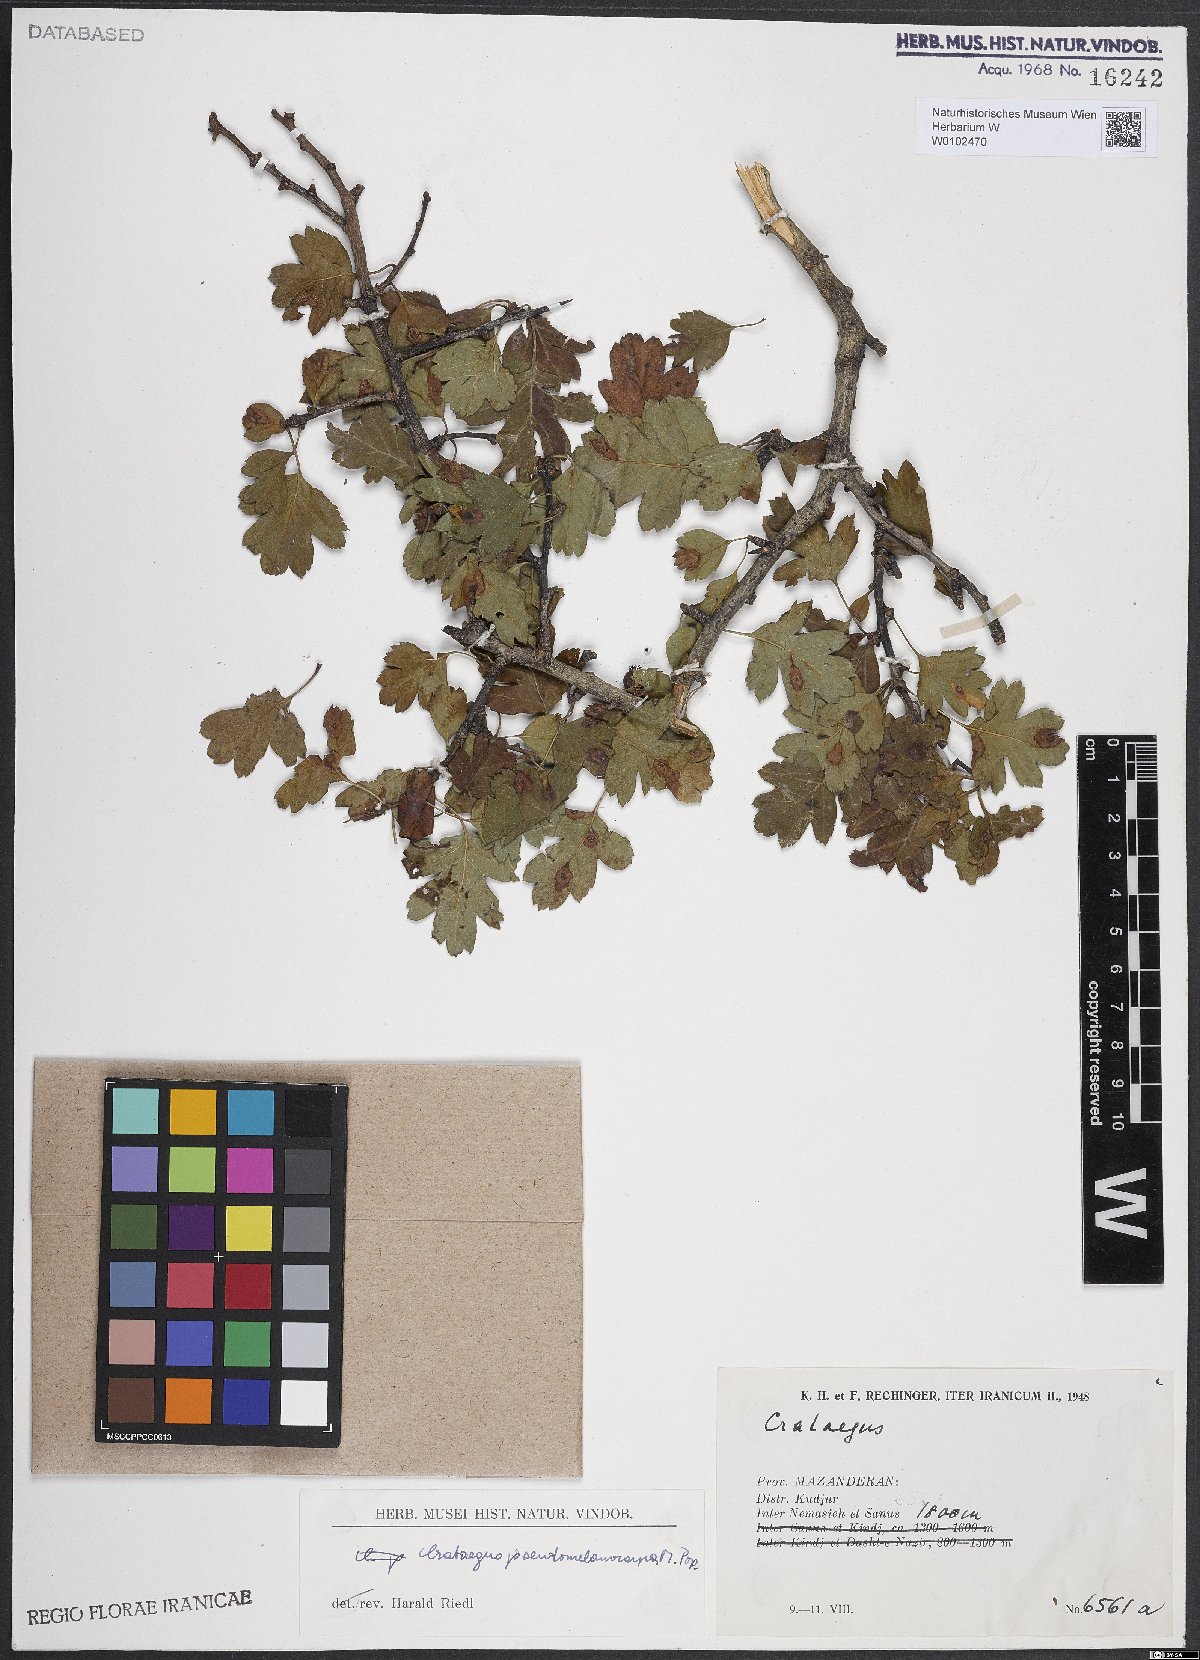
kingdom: Plantae
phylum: Tracheophyta
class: Magnoliopsida
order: Rosales
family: Rosaceae
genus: Crataegus
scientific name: Crataegus pentagyna
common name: Small-flowered black hawthorn
